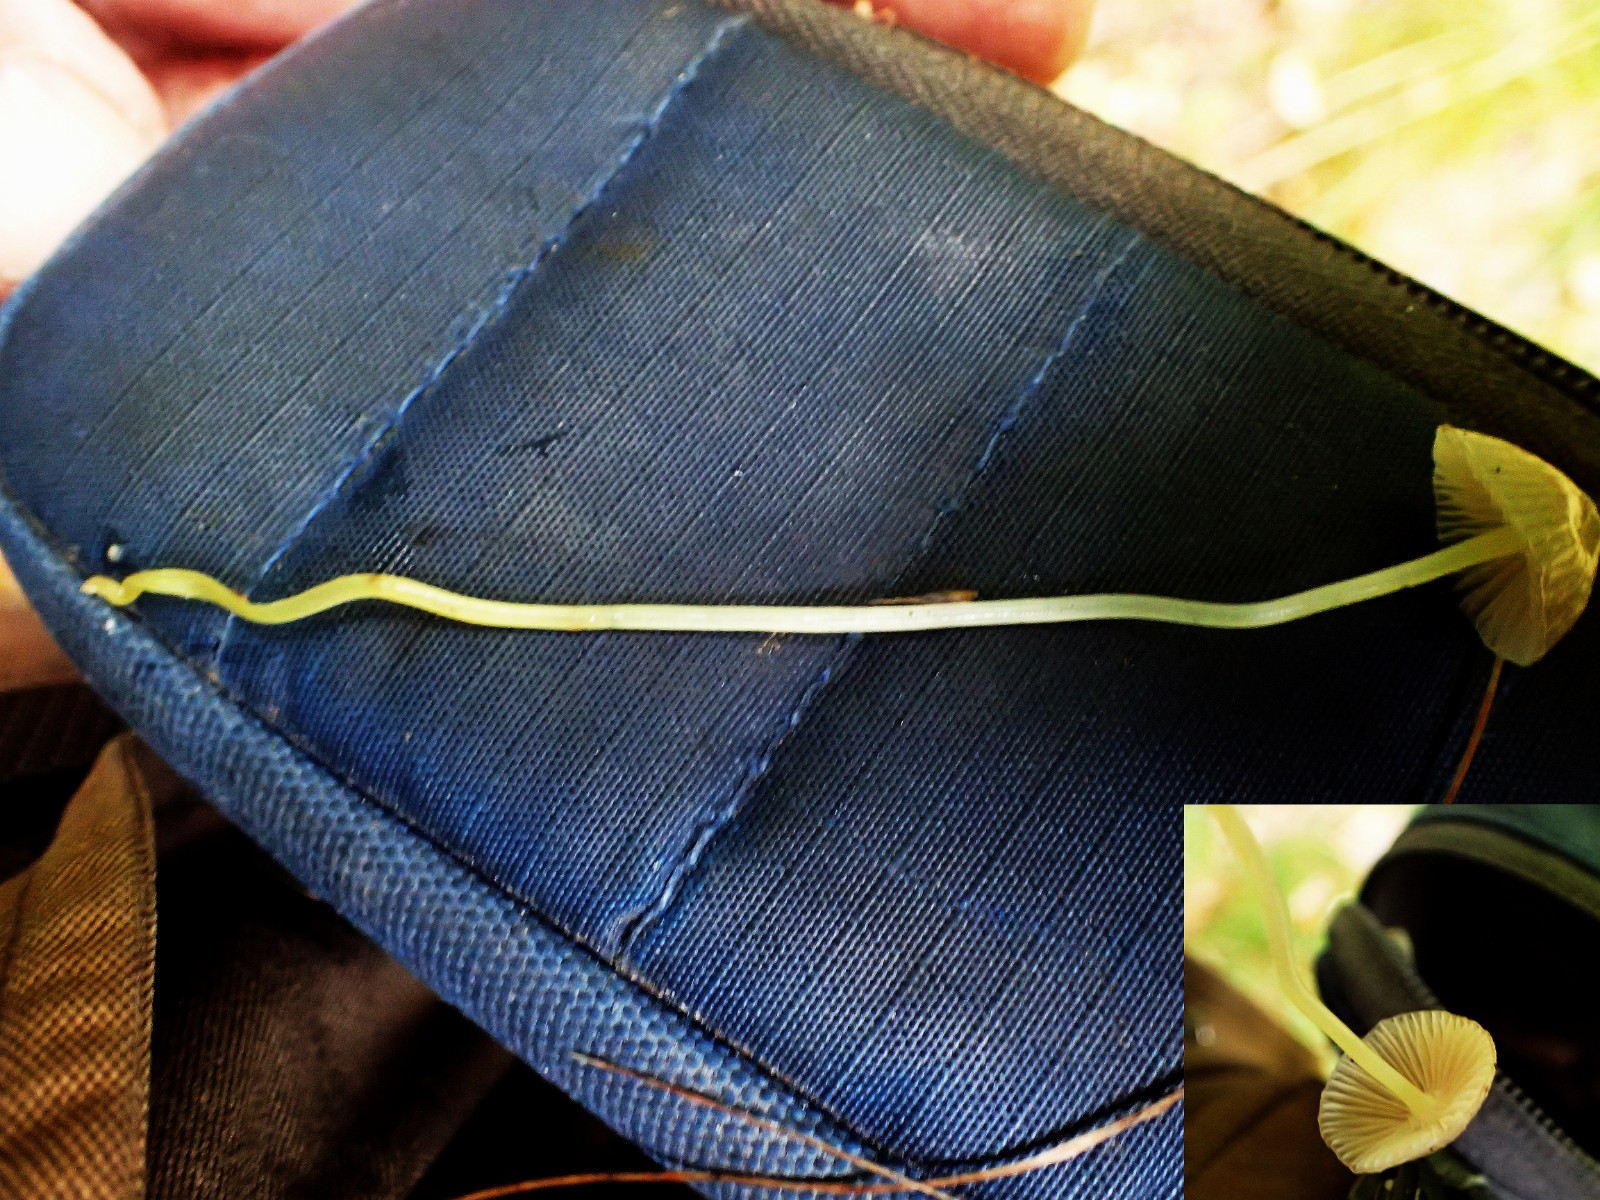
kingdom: Fungi
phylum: Basidiomycota
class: Agaricomycetes
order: Agaricales
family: Mycenaceae
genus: Mycena
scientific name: Mycena epipterygia
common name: gulstokket huesvamp
